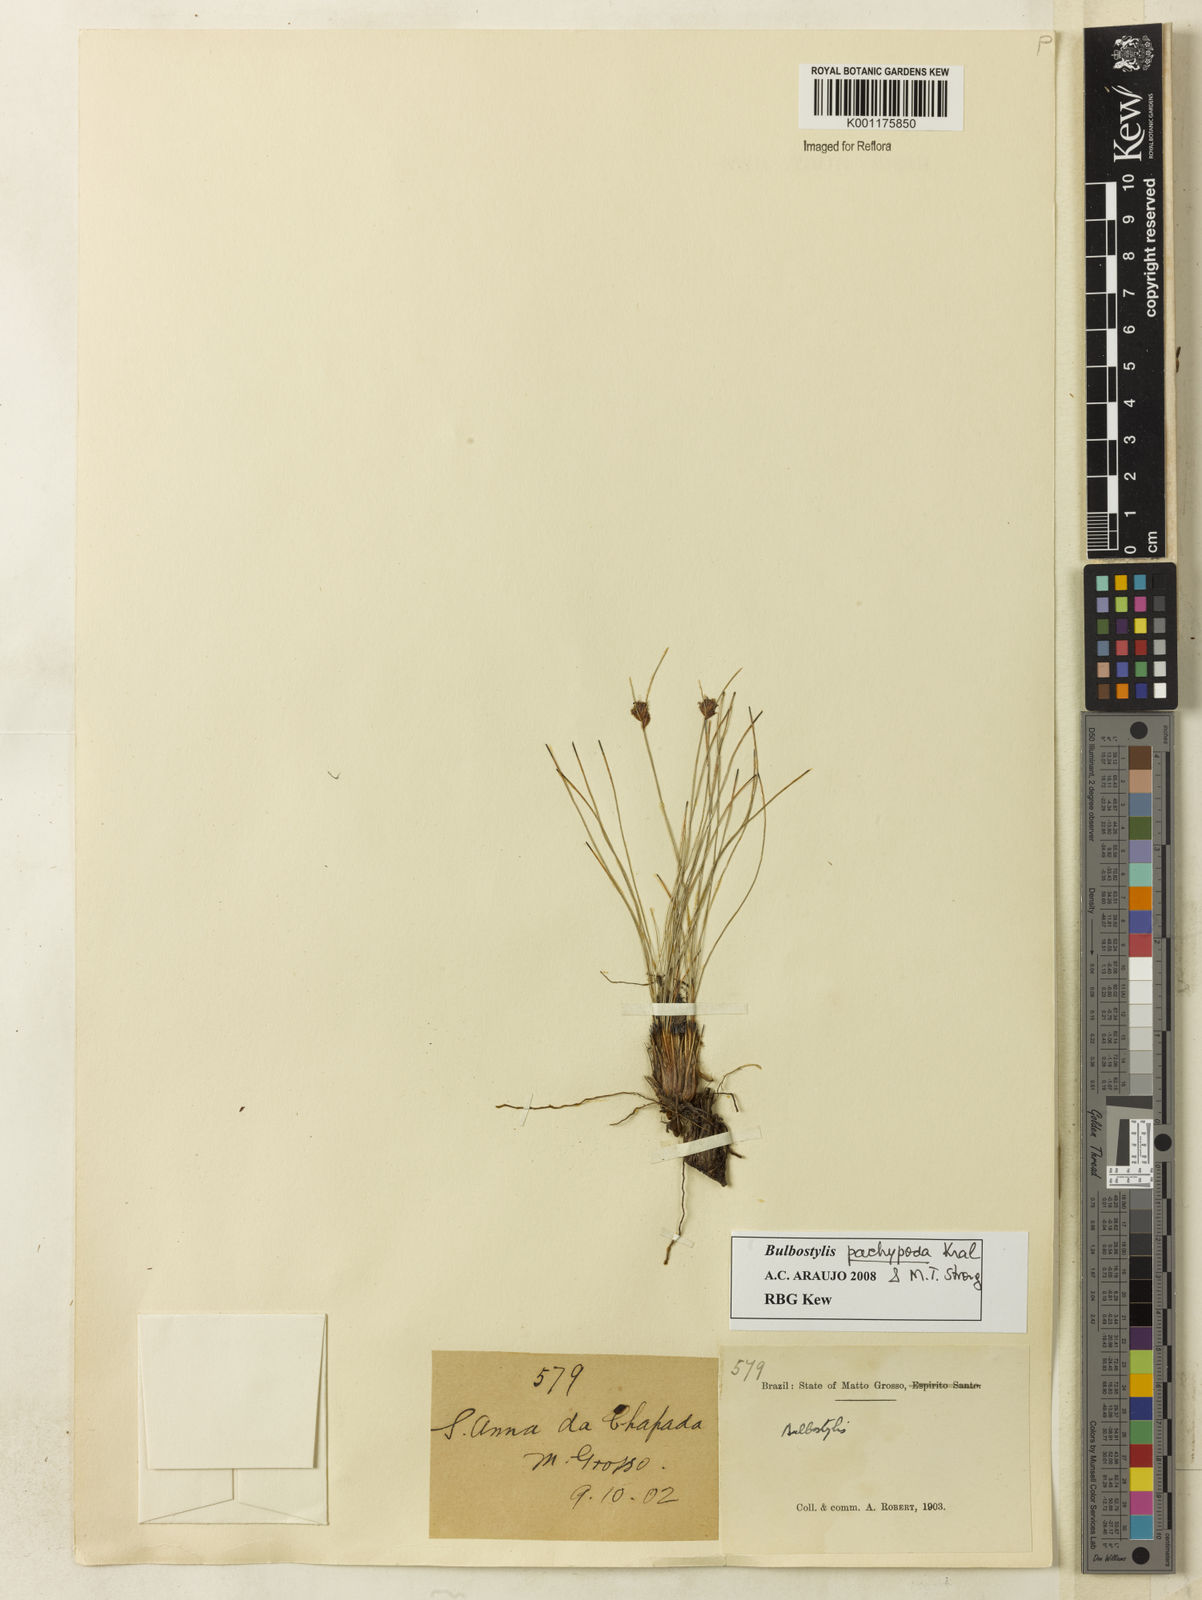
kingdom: Plantae
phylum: Tracheophyta
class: Liliopsida
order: Poales
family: Cyperaceae
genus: Bulbostylis
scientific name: Bulbostylis pachypoda
